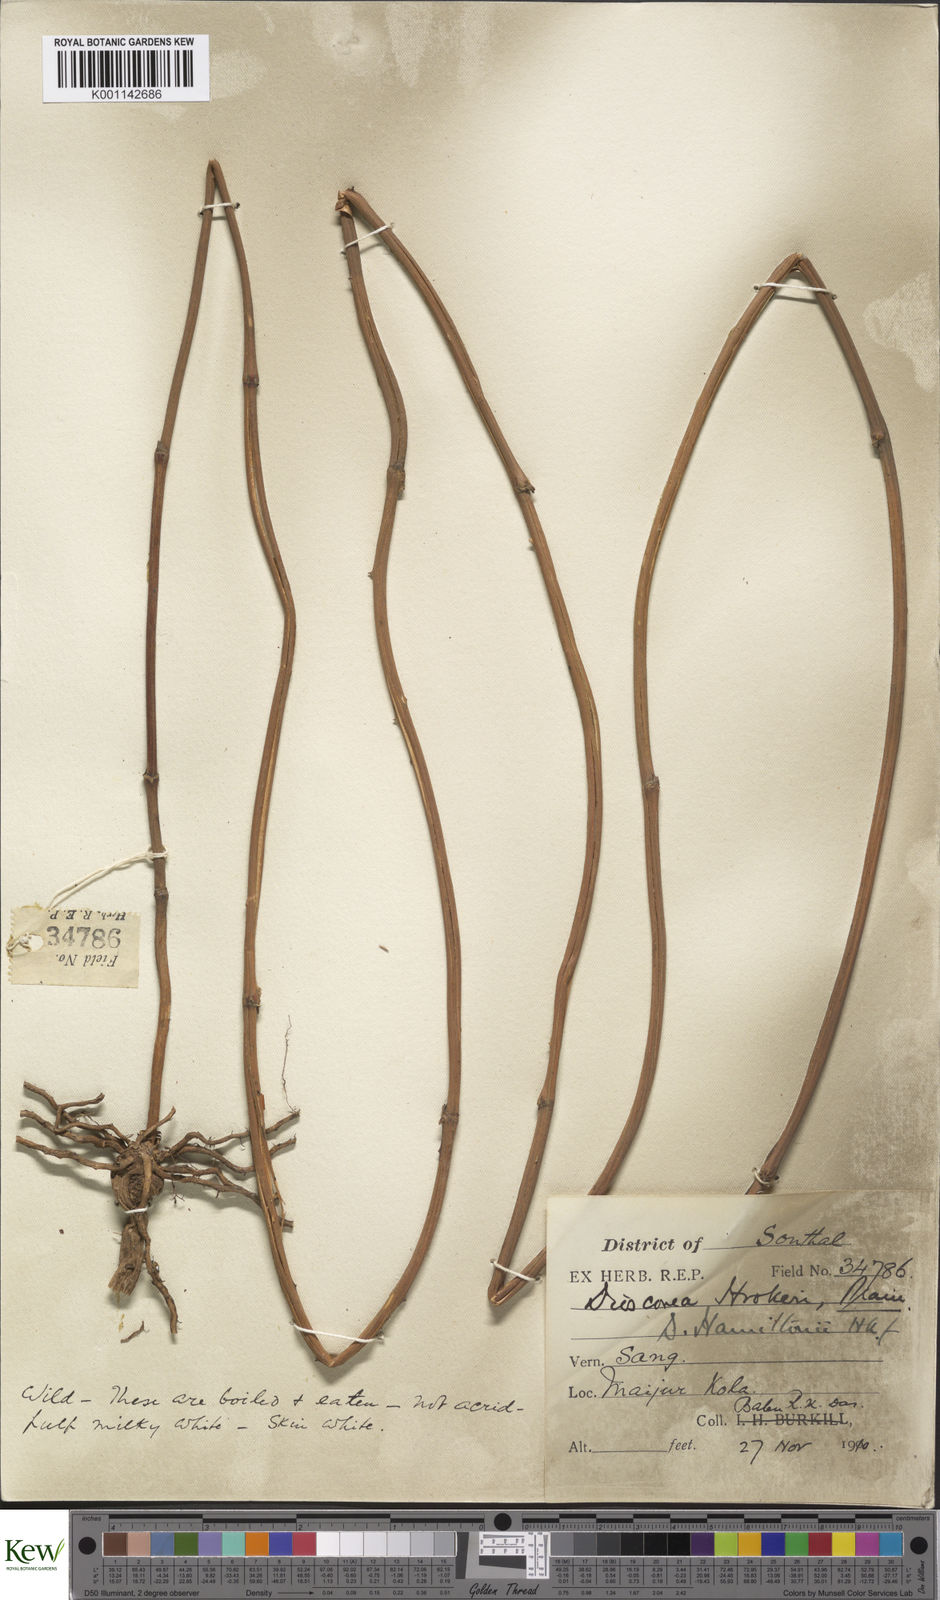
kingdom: Plantae
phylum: Tracheophyta
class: Liliopsida
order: Dioscoreales
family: Dioscoreaceae
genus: Dioscorea
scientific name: Dioscorea hamiltonii
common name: Mountain yam
